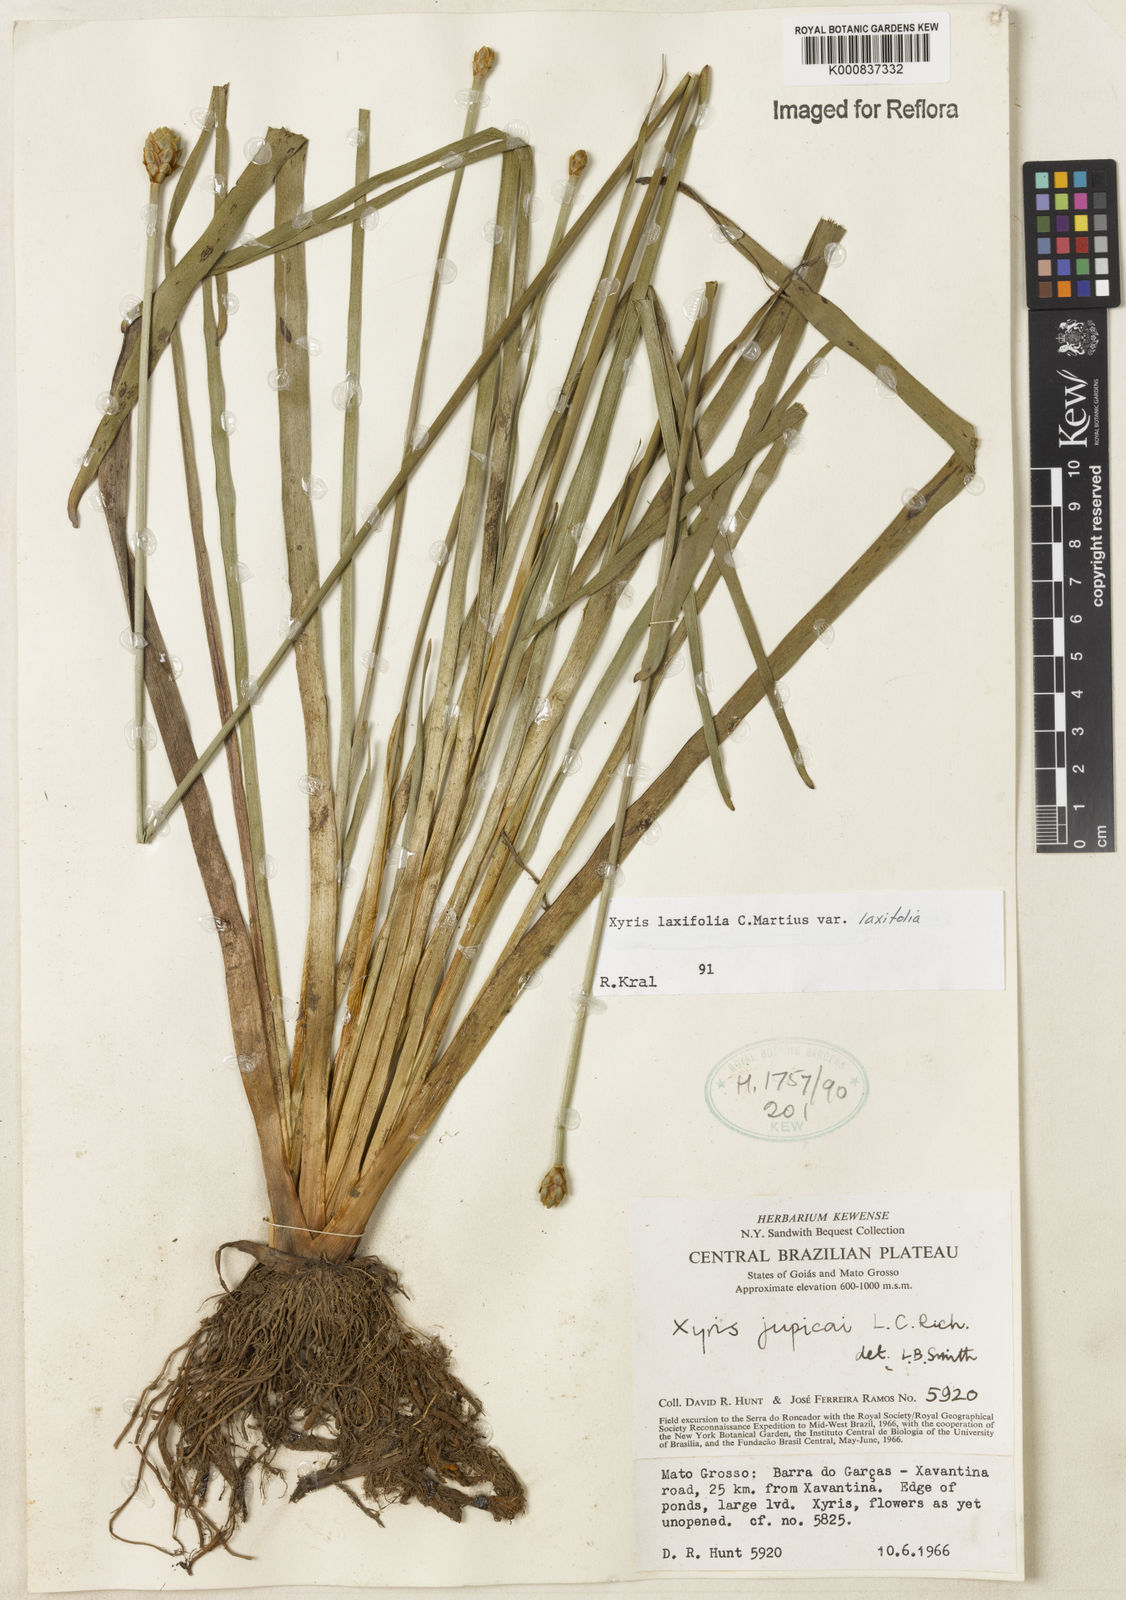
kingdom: Plantae
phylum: Tracheophyta
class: Liliopsida
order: Poales
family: Xyridaceae
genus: Xyris
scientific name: Xyris laxifolia
